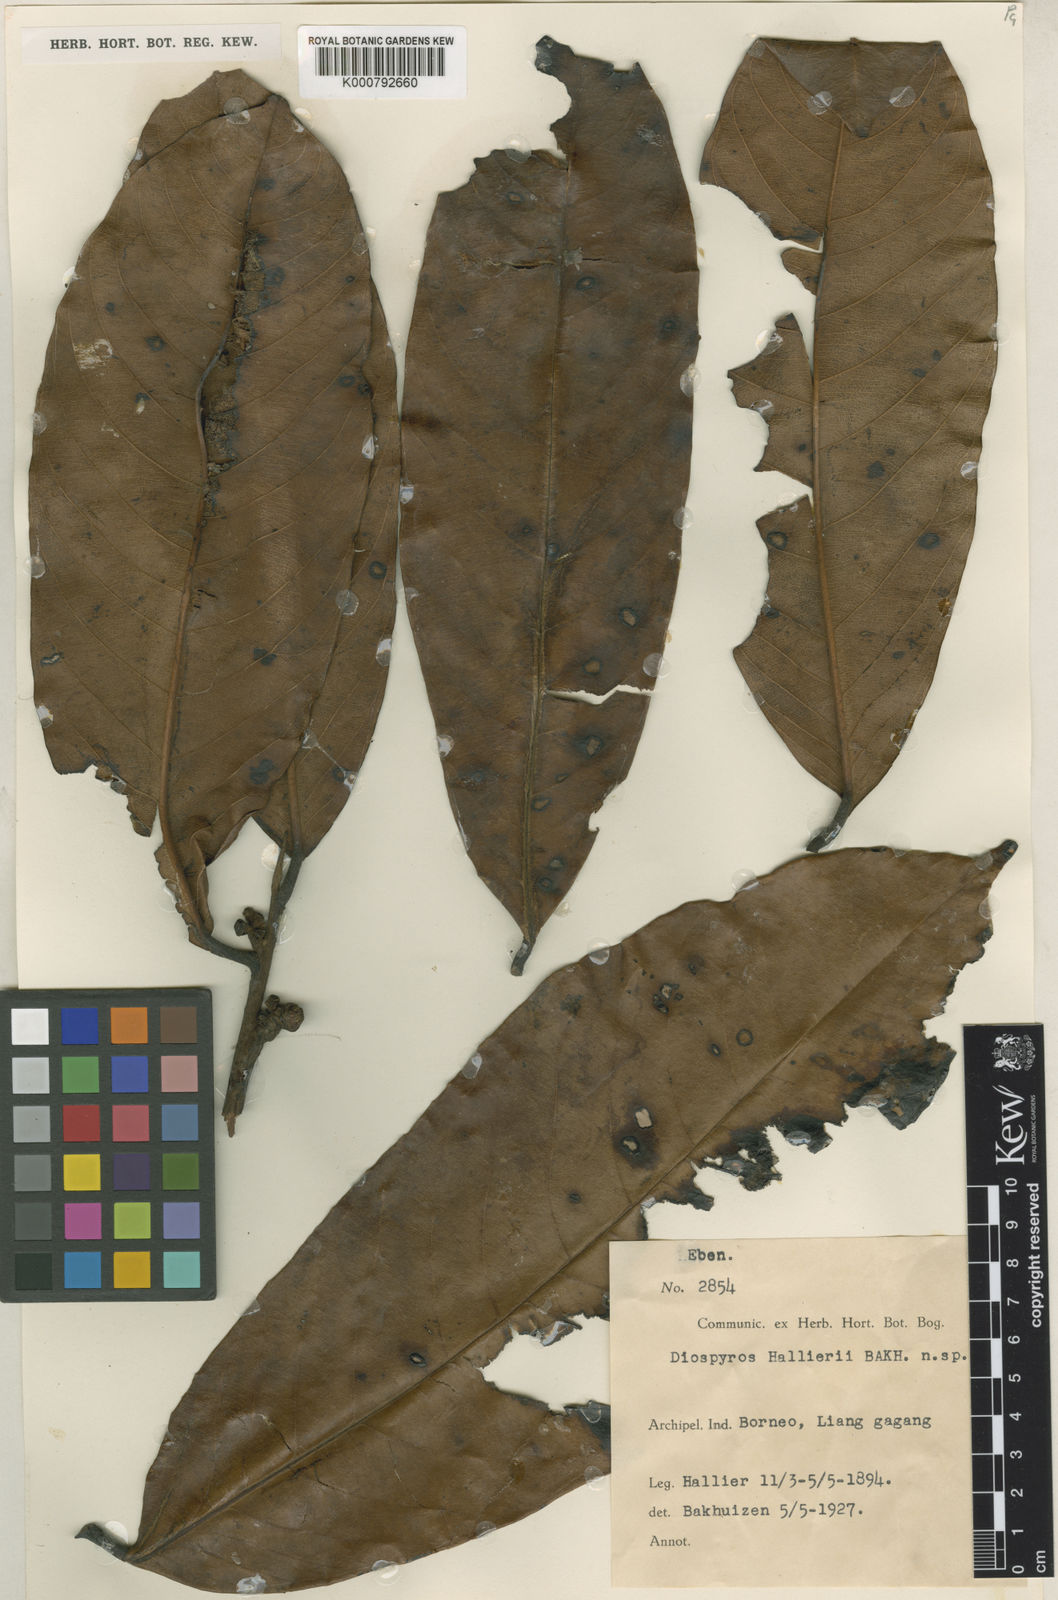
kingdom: Plantae
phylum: Tracheophyta
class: Magnoliopsida
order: Ericales
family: Ebenaceae
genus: Diospyros
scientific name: Diospyros hallieri
